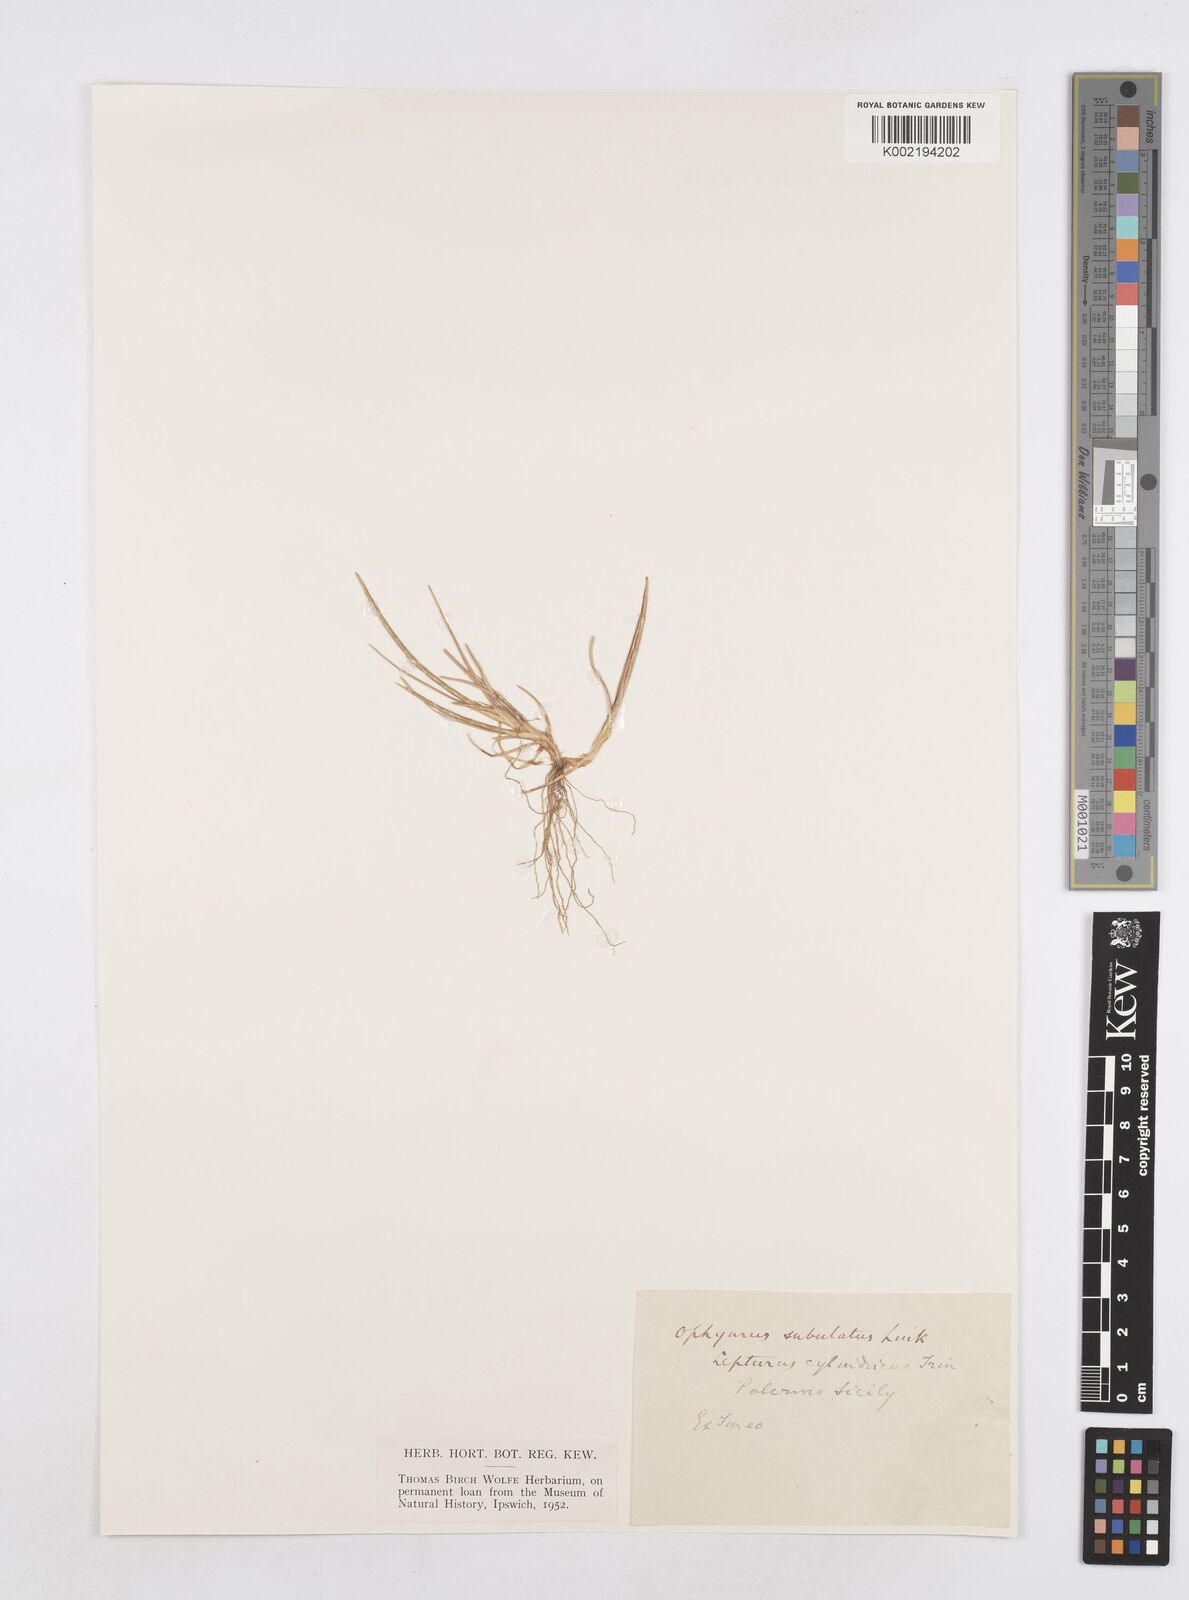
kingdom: Plantae
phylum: Tracheophyta
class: Liliopsida
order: Poales
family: Poaceae
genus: Parapholis
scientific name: Parapholis cylindrica
